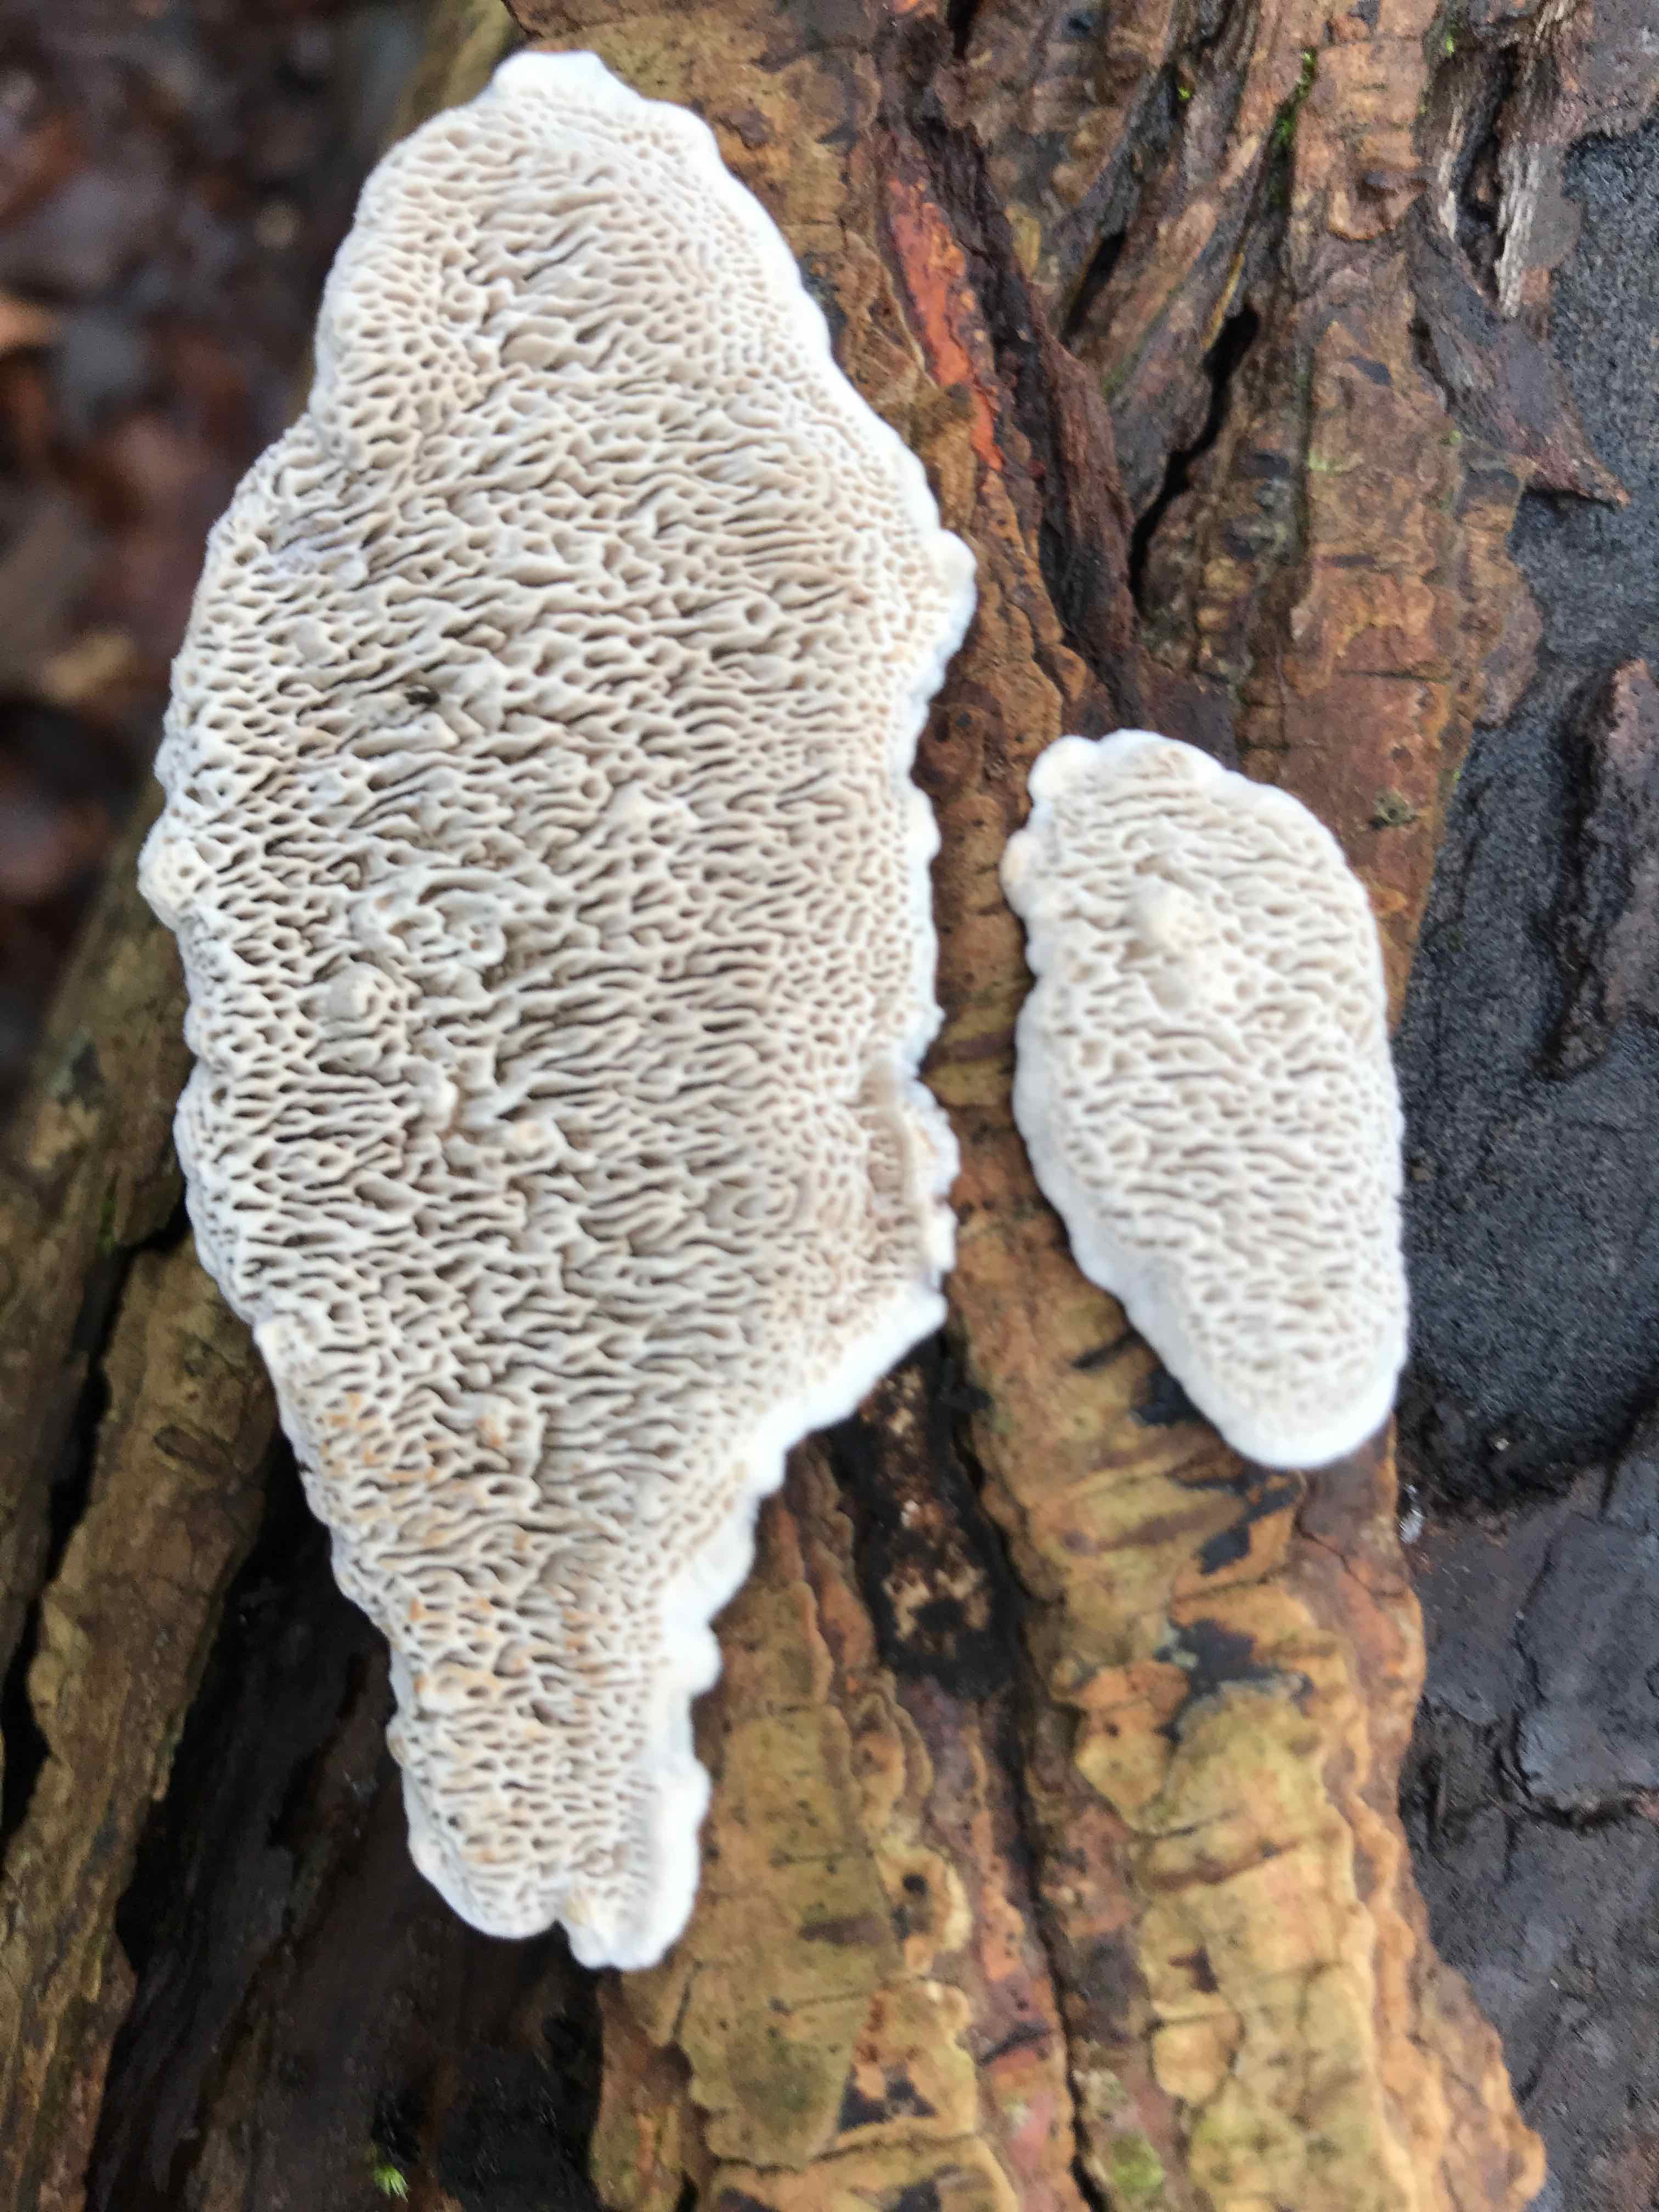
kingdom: Fungi
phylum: Basidiomycota
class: Agaricomycetes
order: Polyporales
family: Polyporaceae
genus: Podofomes
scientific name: Podofomes mollis
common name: blød begporesvamp
